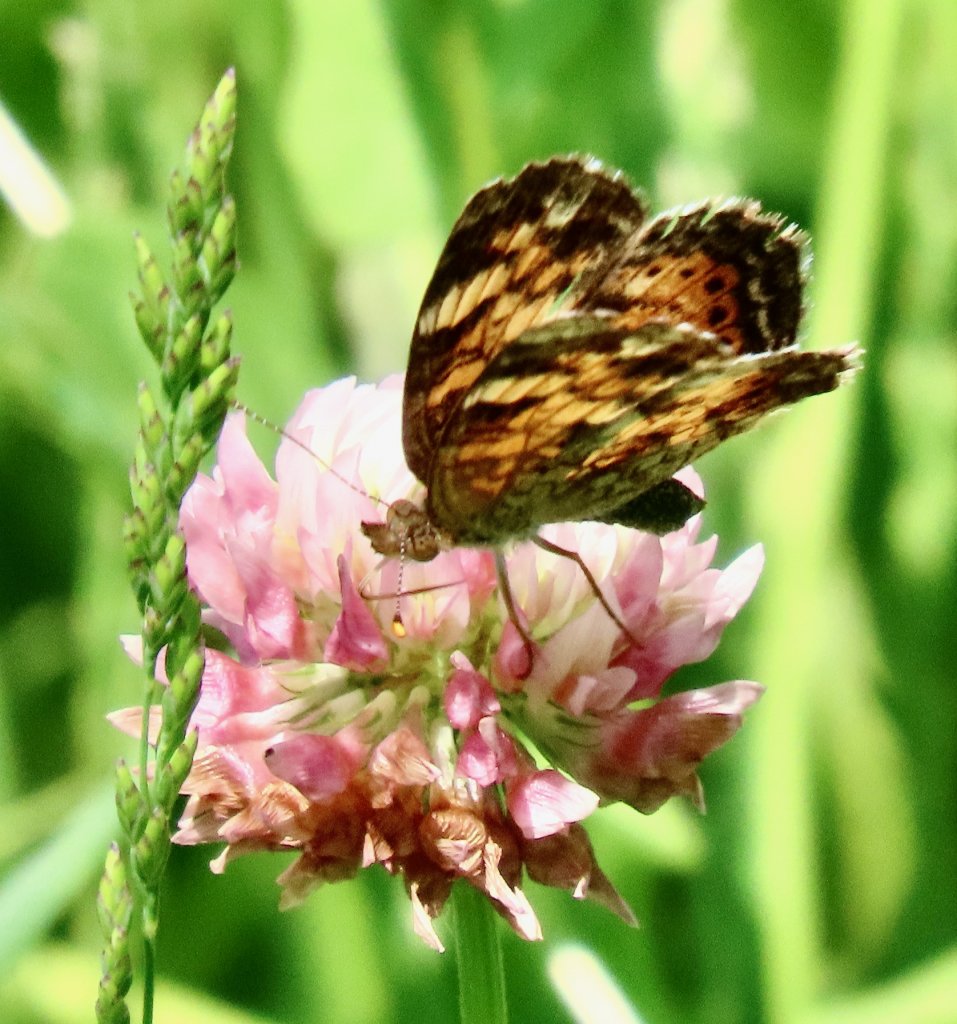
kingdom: Animalia
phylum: Arthropoda
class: Insecta
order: Lepidoptera
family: Nymphalidae
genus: Phyciodes
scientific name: Phyciodes tharos
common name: Pearl Crescent
